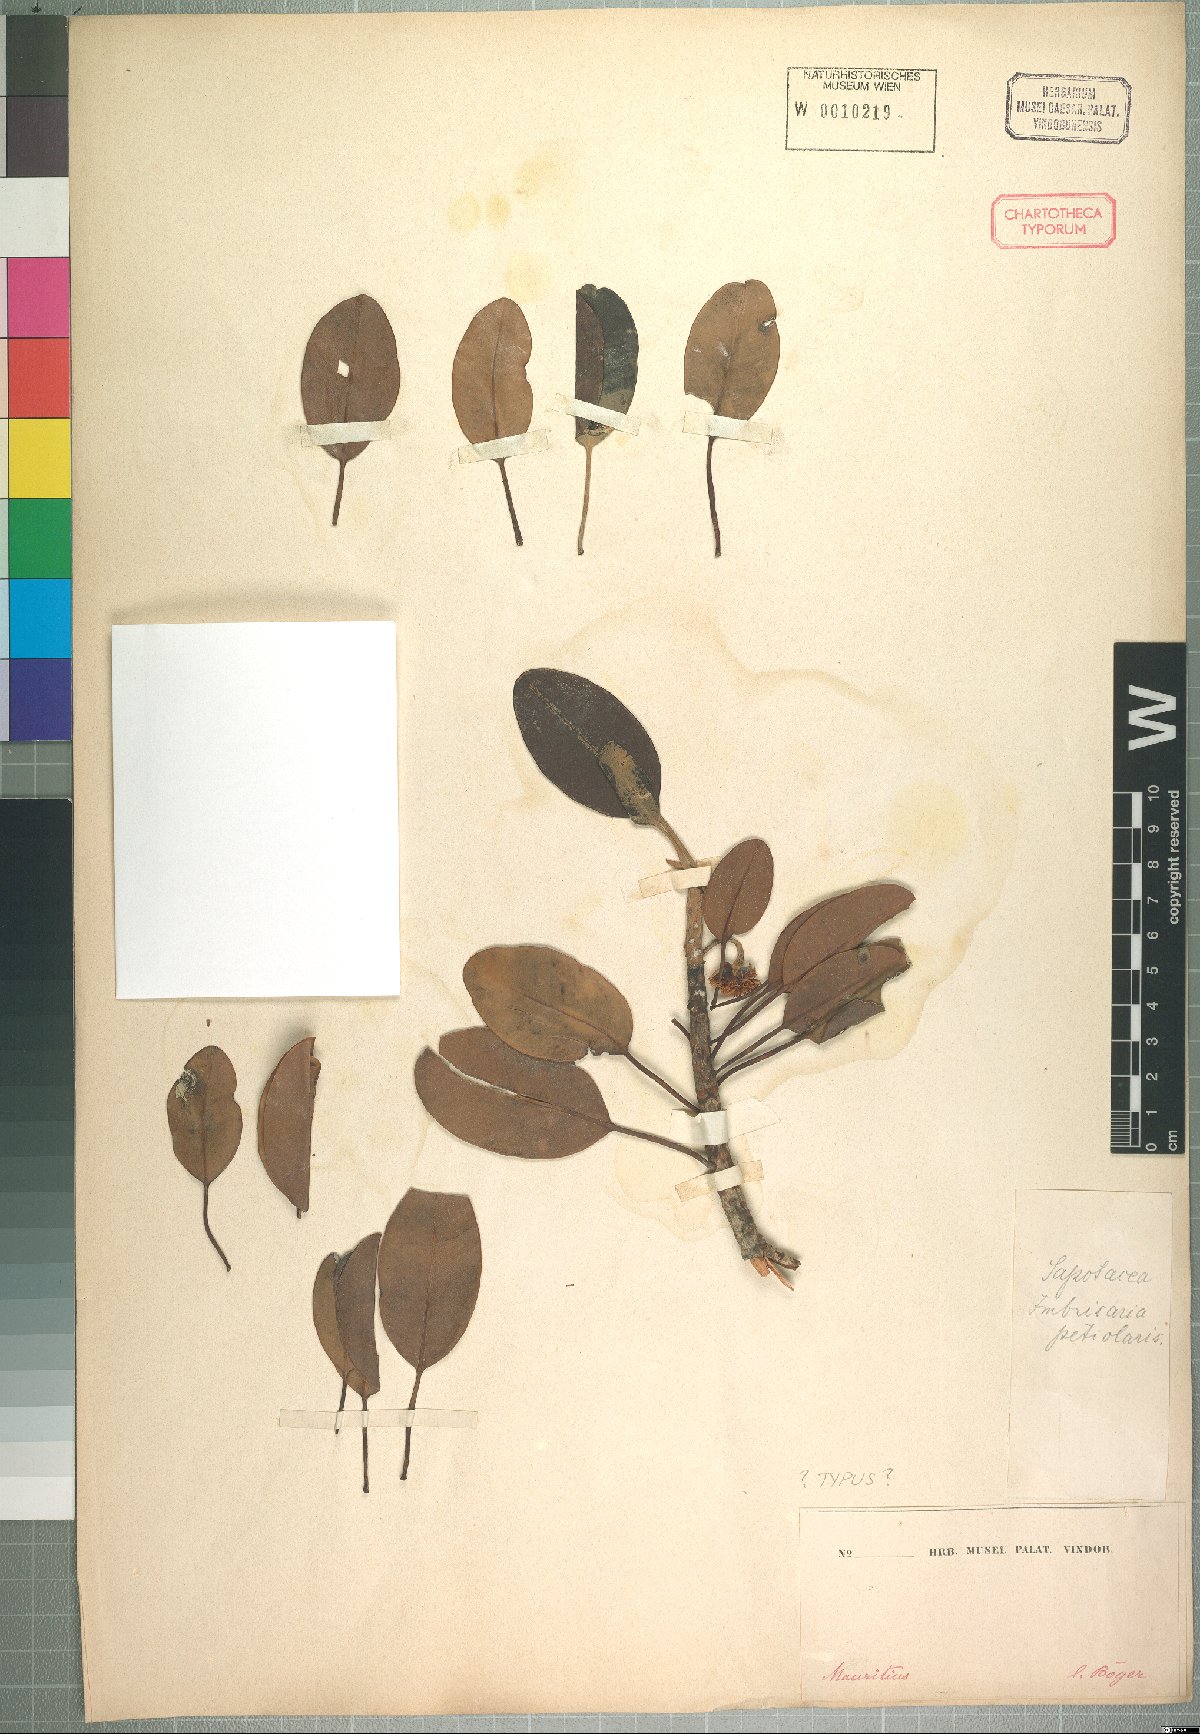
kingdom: Plantae
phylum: Tracheophyta
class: Magnoliopsida
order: Ericales
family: Sapotaceae
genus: Mimusops
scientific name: Mimusops petiolaris
